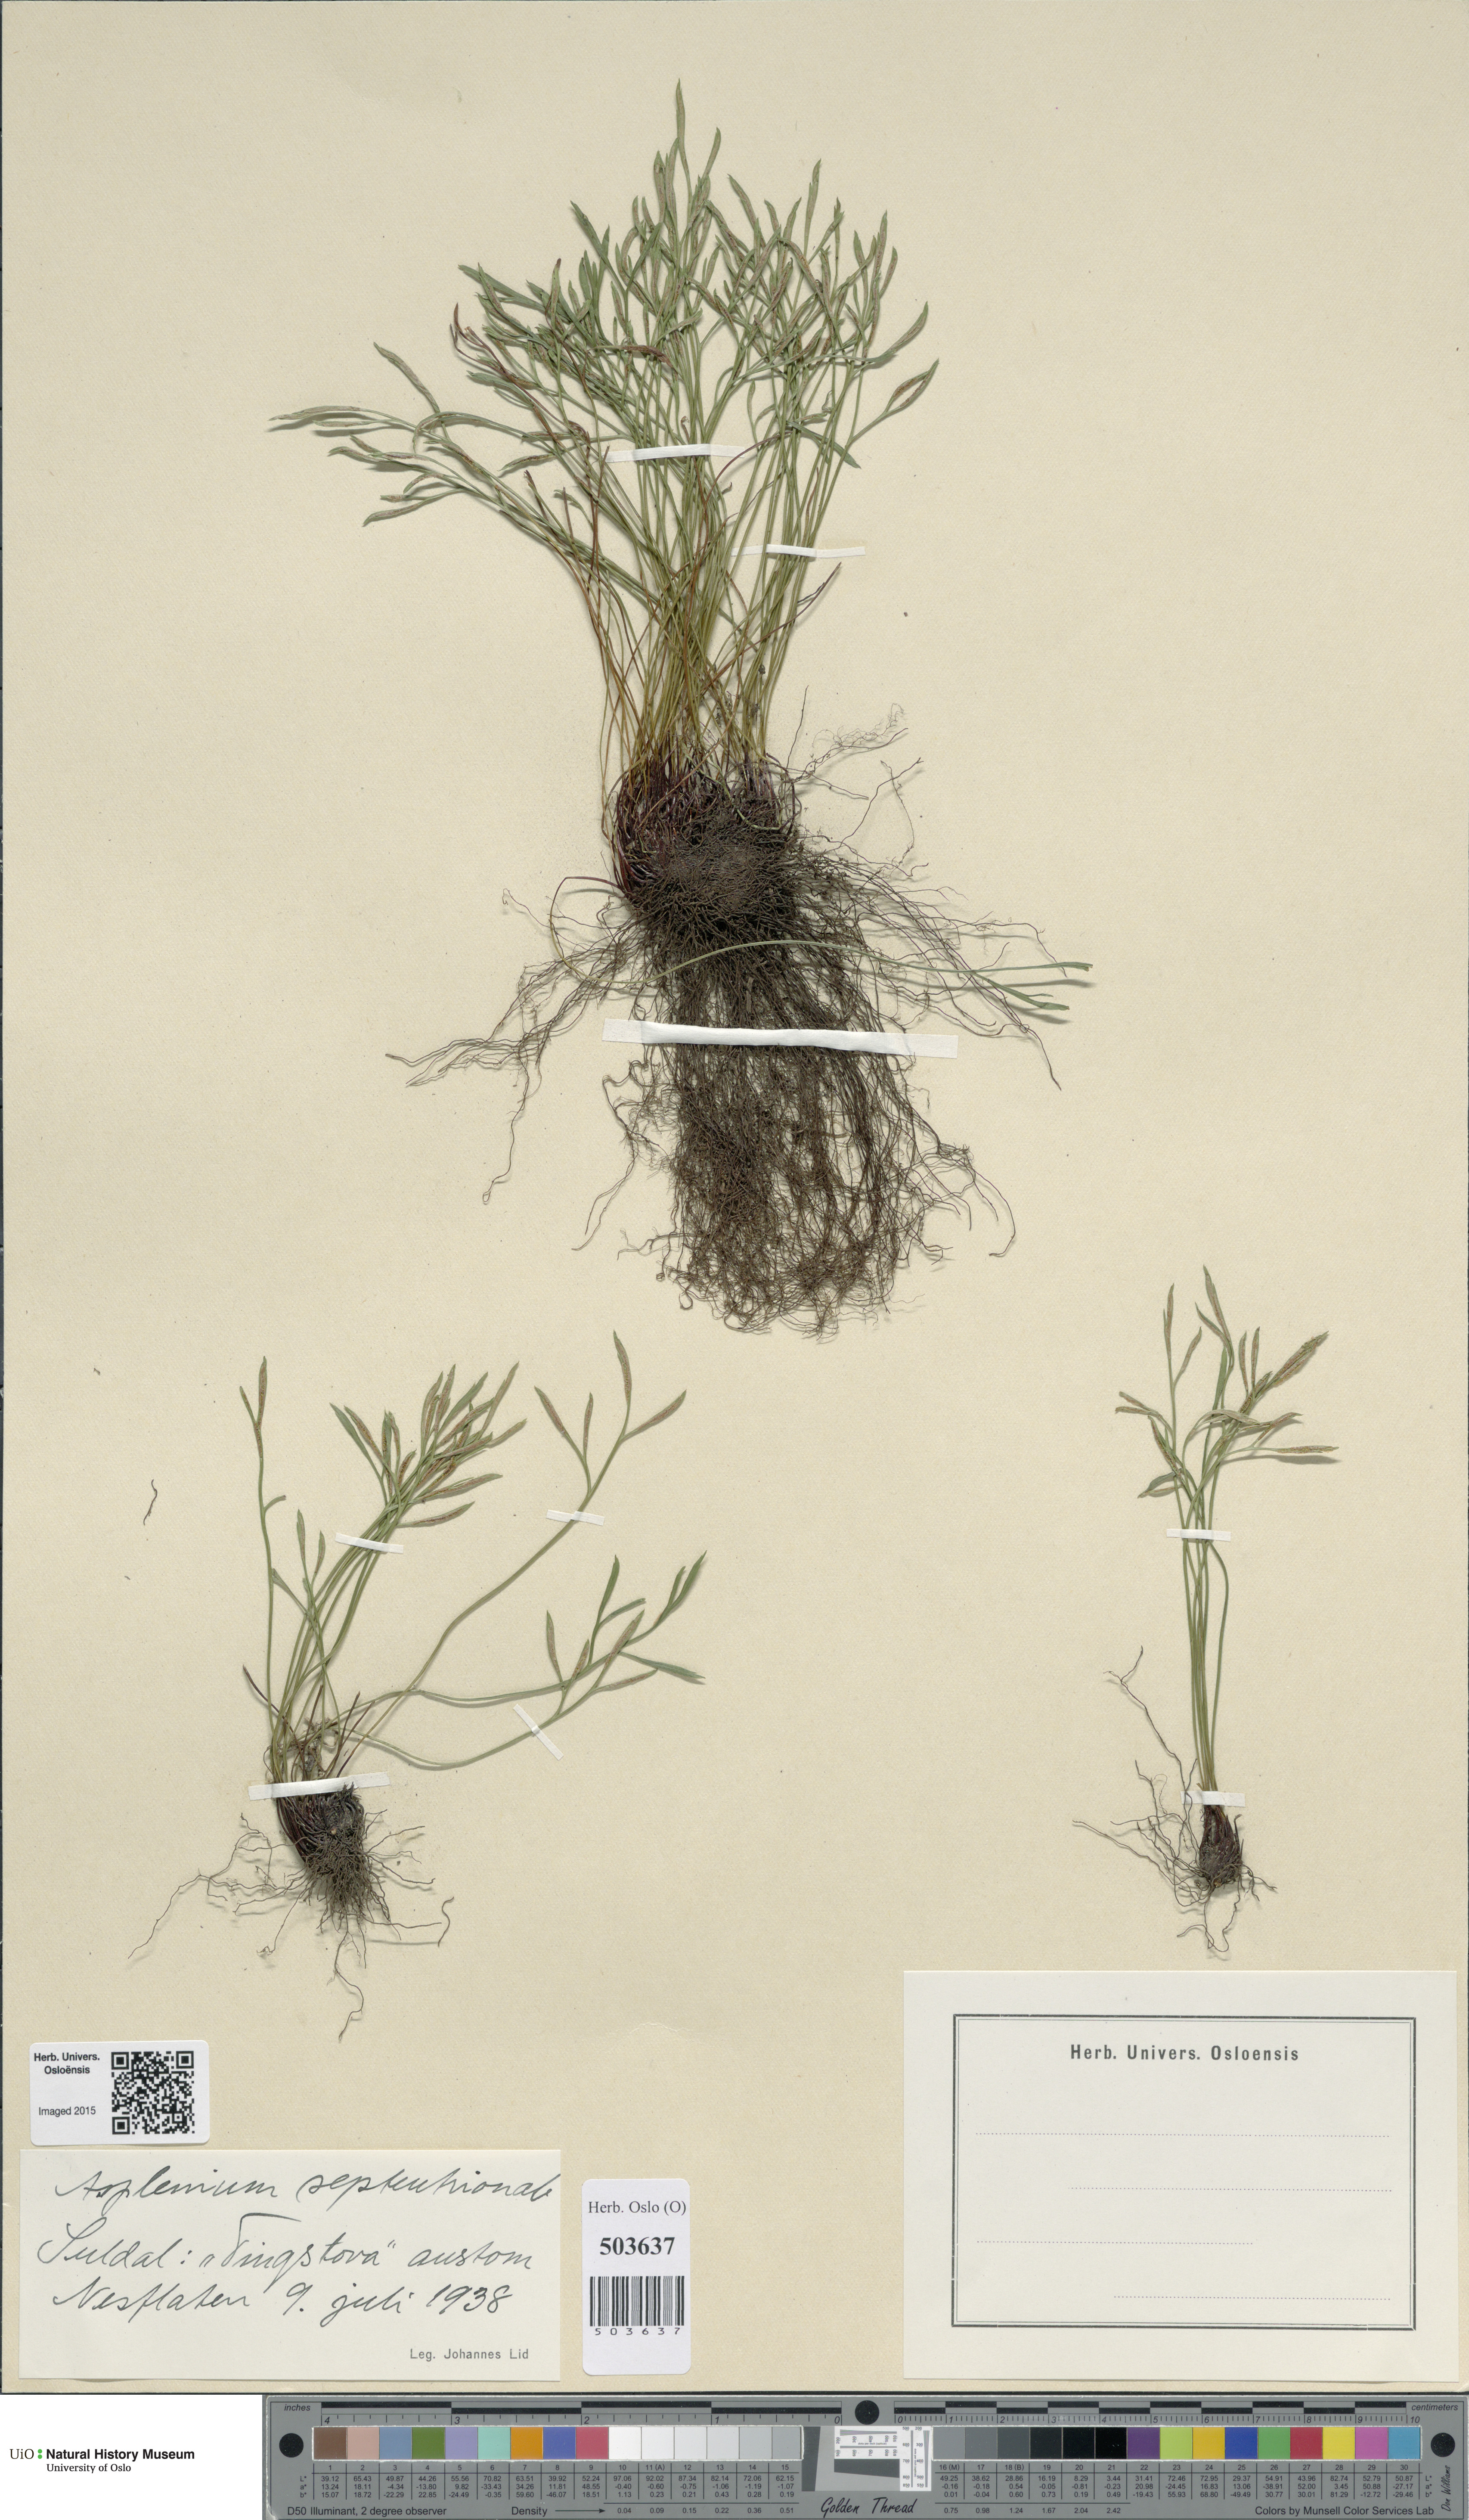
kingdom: Plantae
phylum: Tracheophyta
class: Polypodiopsida
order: Polypodiales
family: Aspleniaceae
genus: Asplenium
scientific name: Asplenium septentrionale
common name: Forked spleenwort
